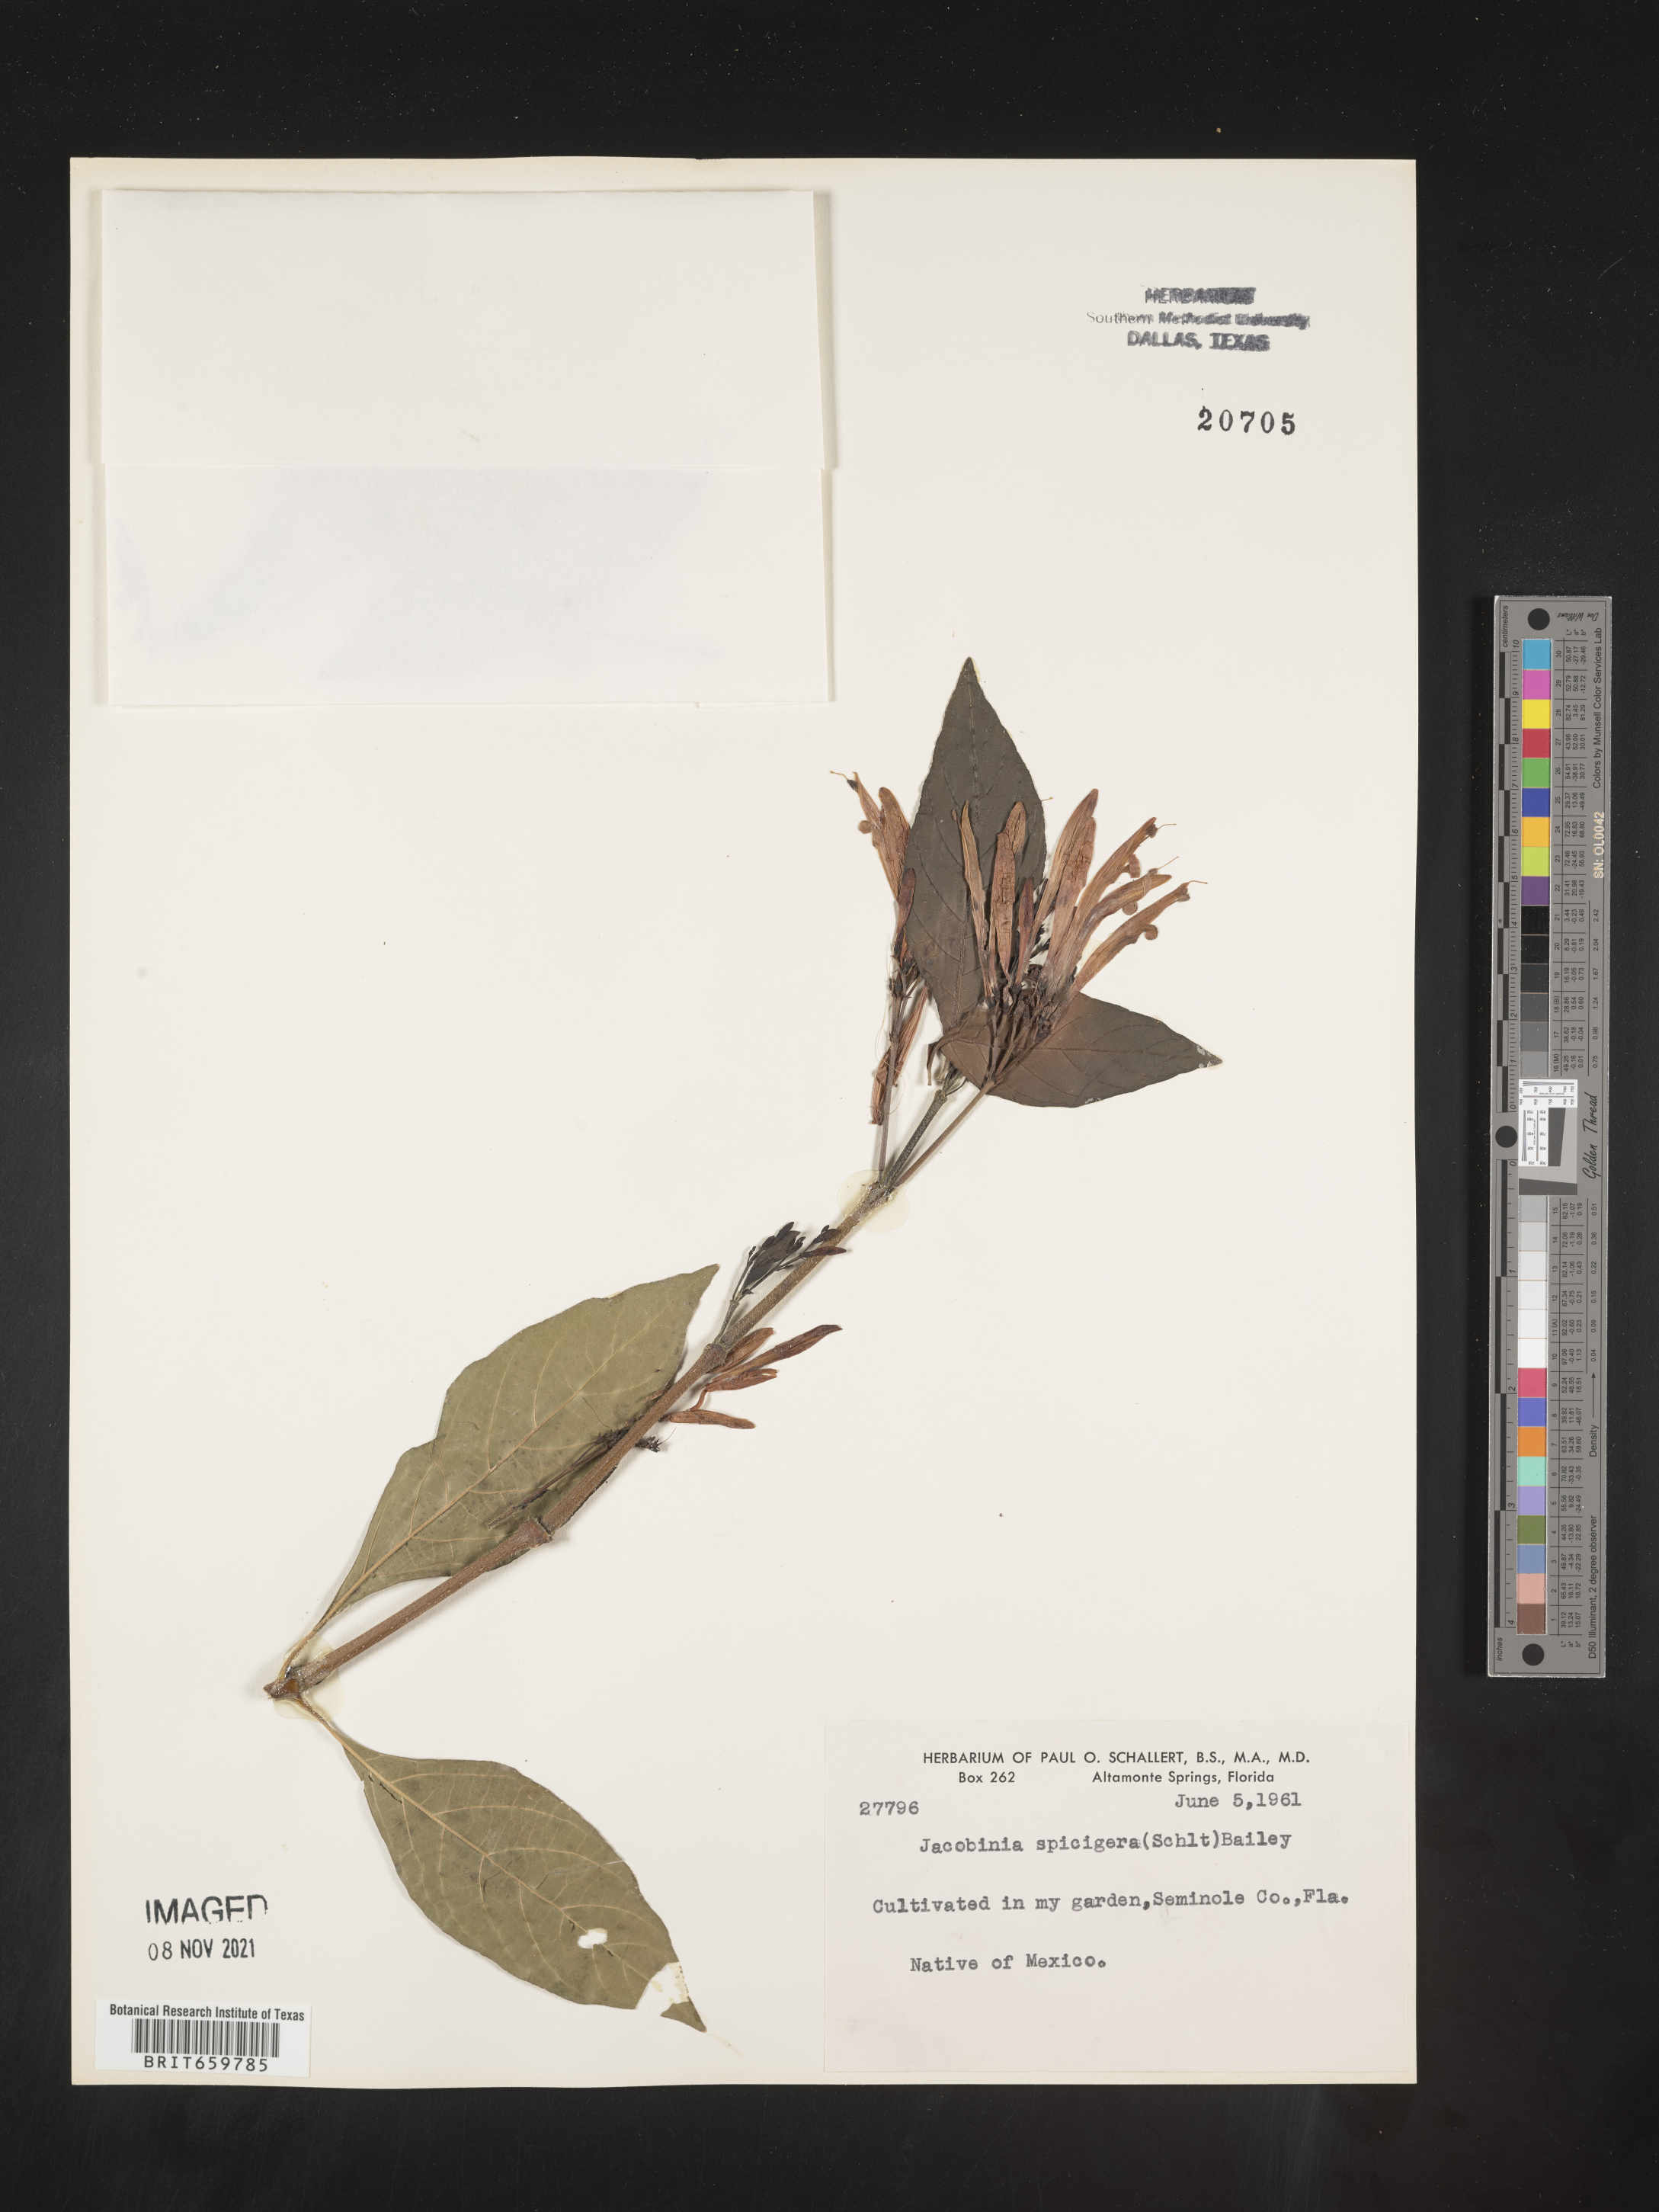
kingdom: Plantae
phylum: Tracheophyta
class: Magnoliopsida
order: Lamiales
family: Acanthaceae
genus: Justicia
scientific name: Justicia
